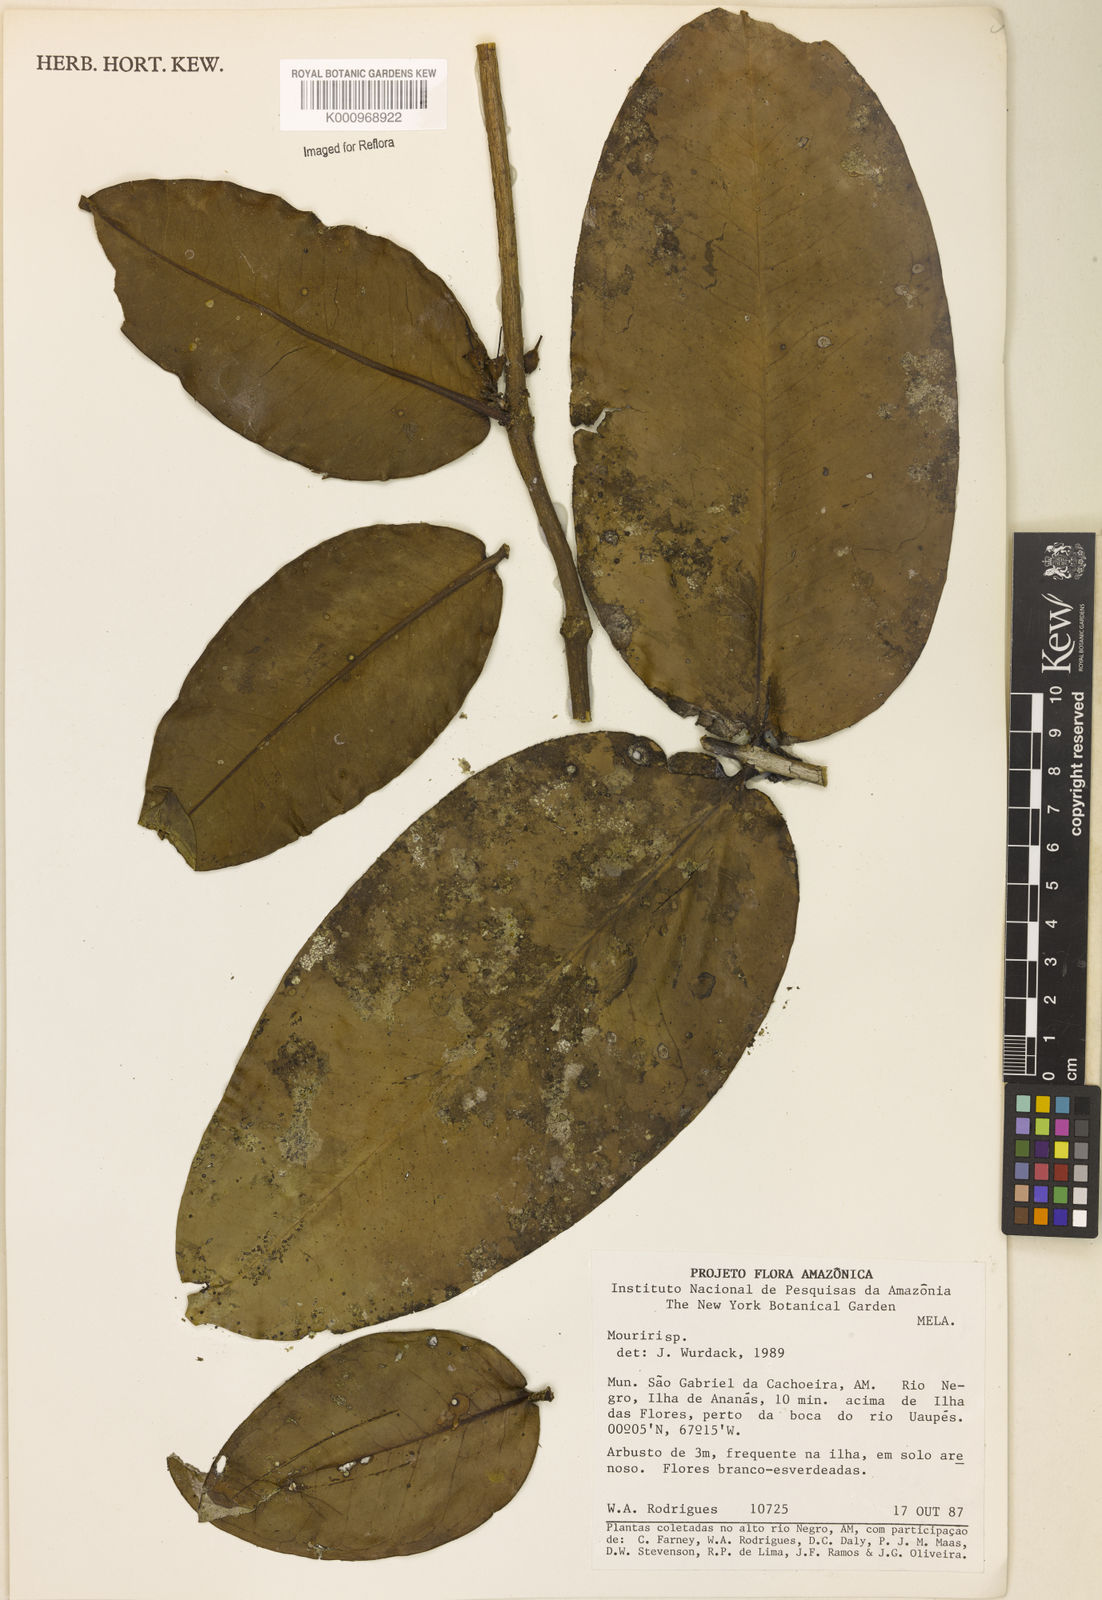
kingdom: Plantae
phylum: Tracheophyta
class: Magnoliopsida
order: Myrtales
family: Melastomataceae
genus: Mouriri
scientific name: Mouriri
